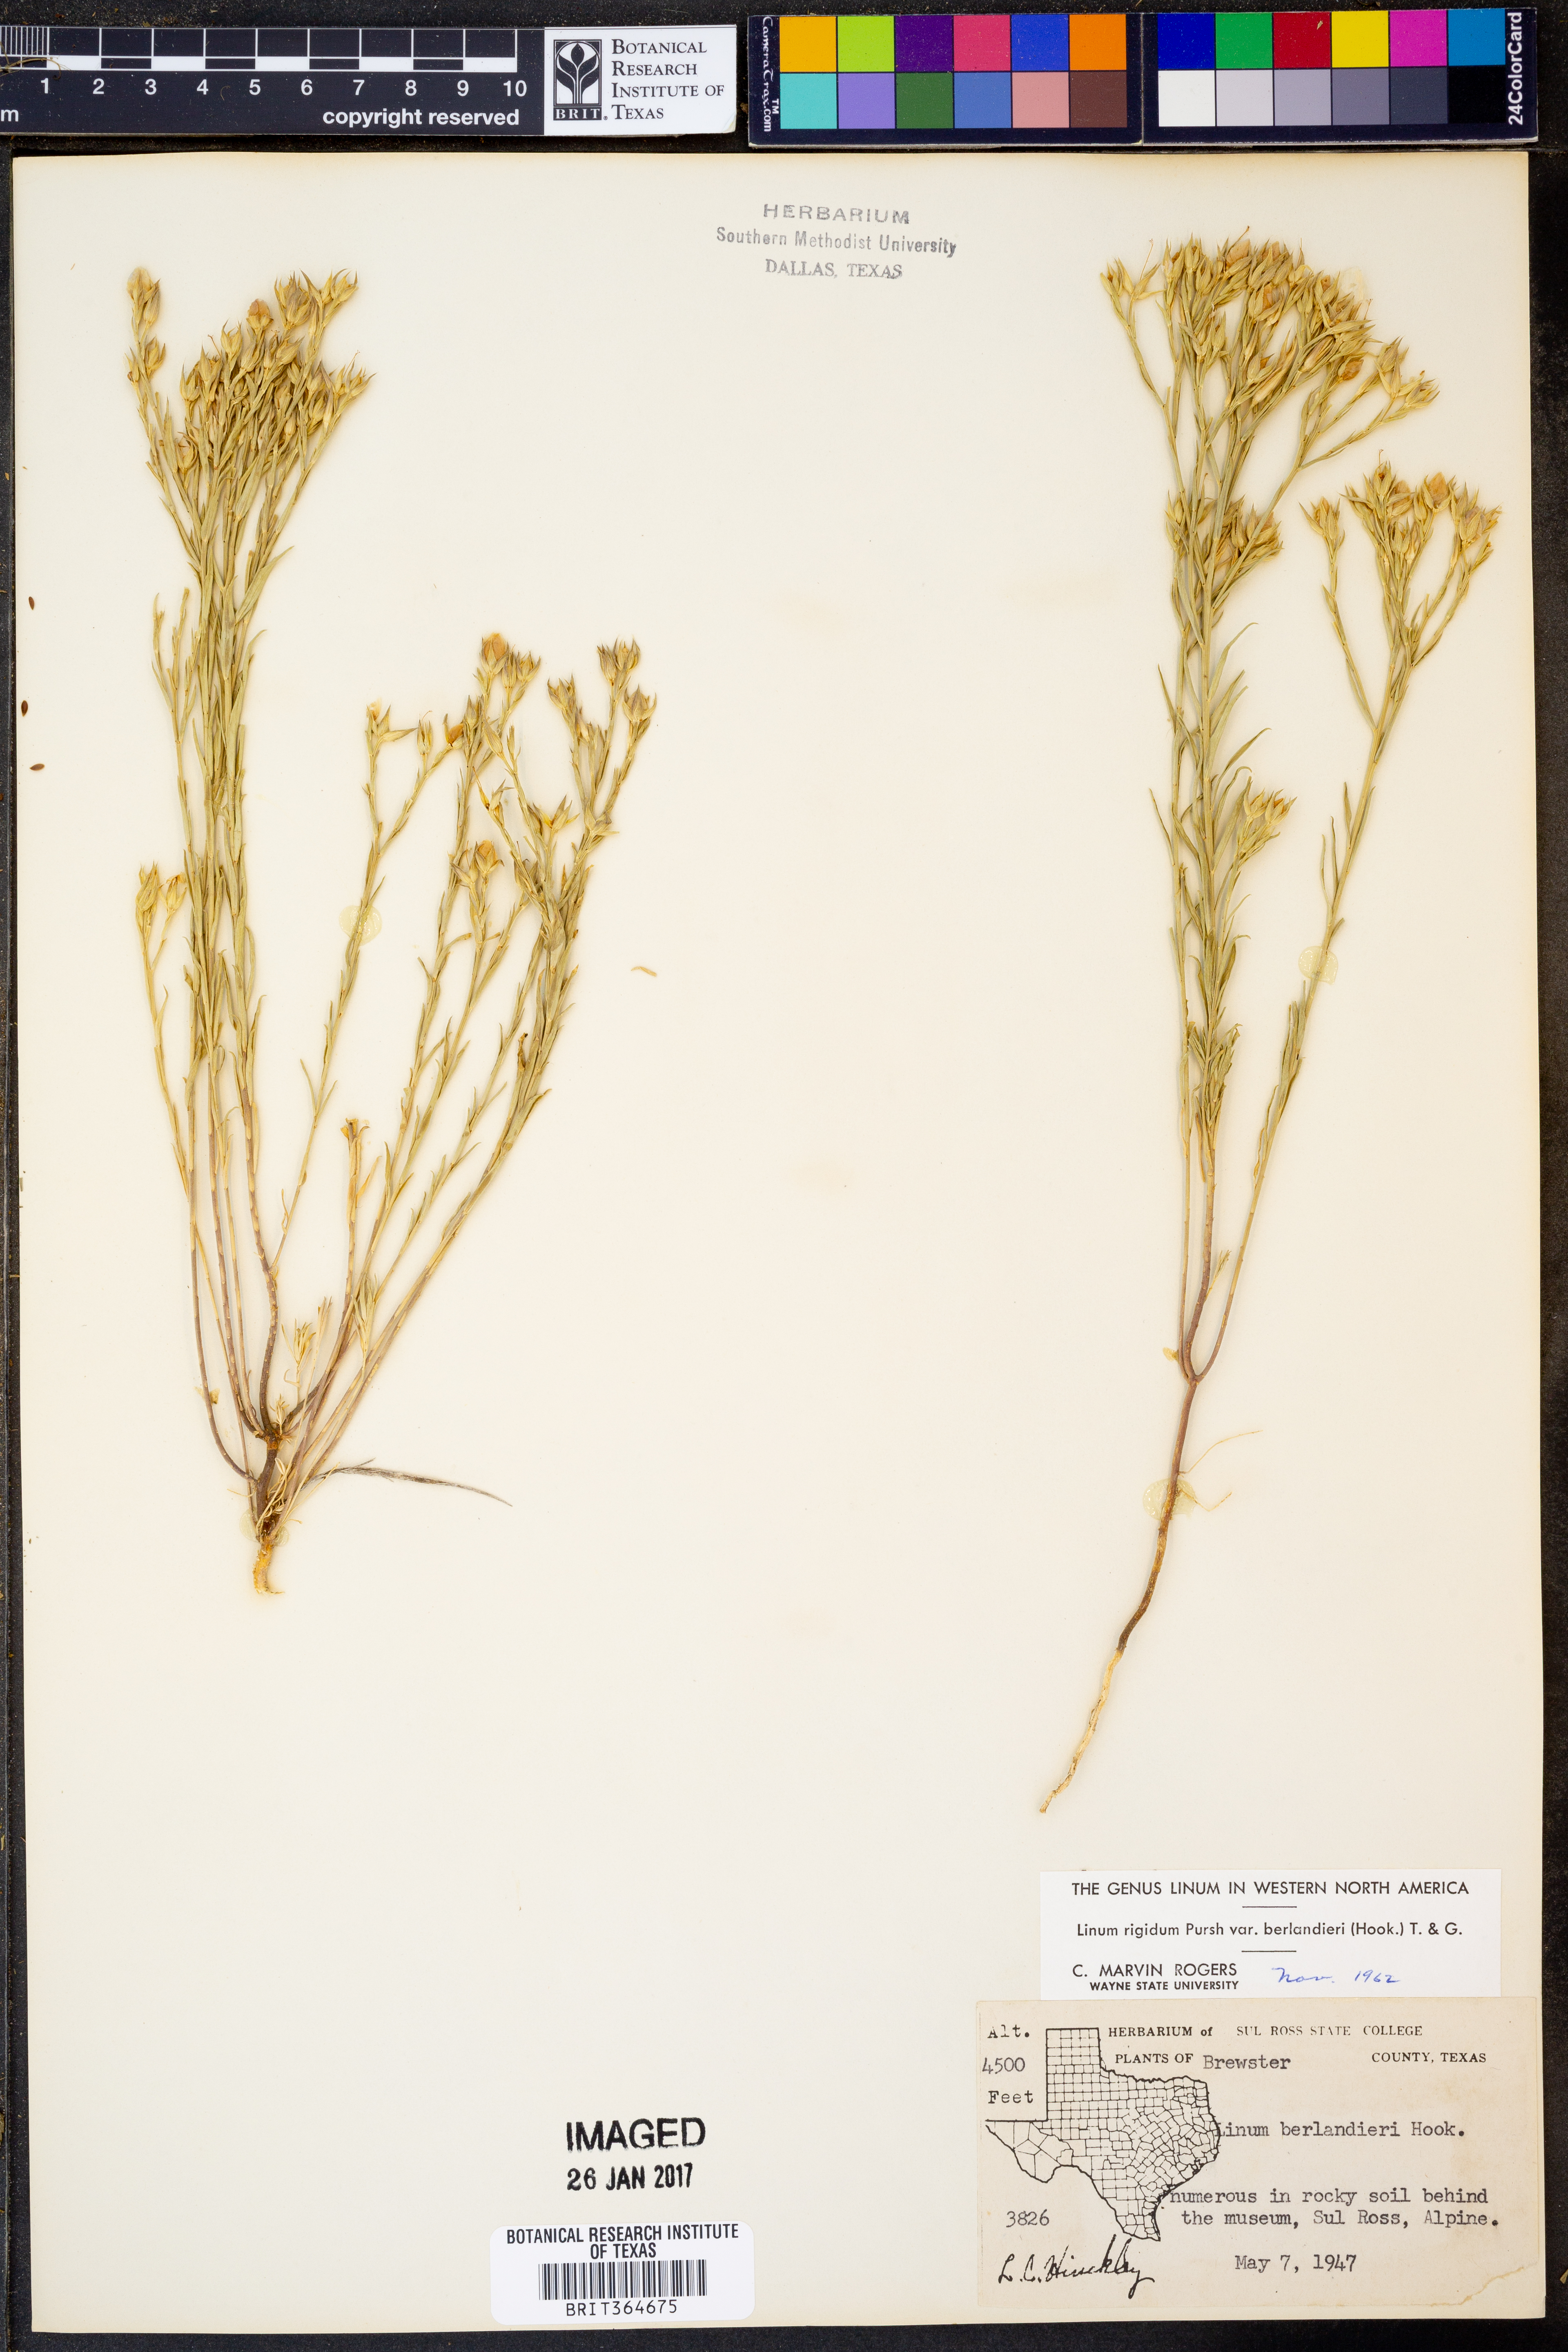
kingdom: Plantae
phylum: Tracheophyta
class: Magnoliopsida
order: Malpighiales
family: Linaceae
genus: Linum
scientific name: Linum berlandieri
